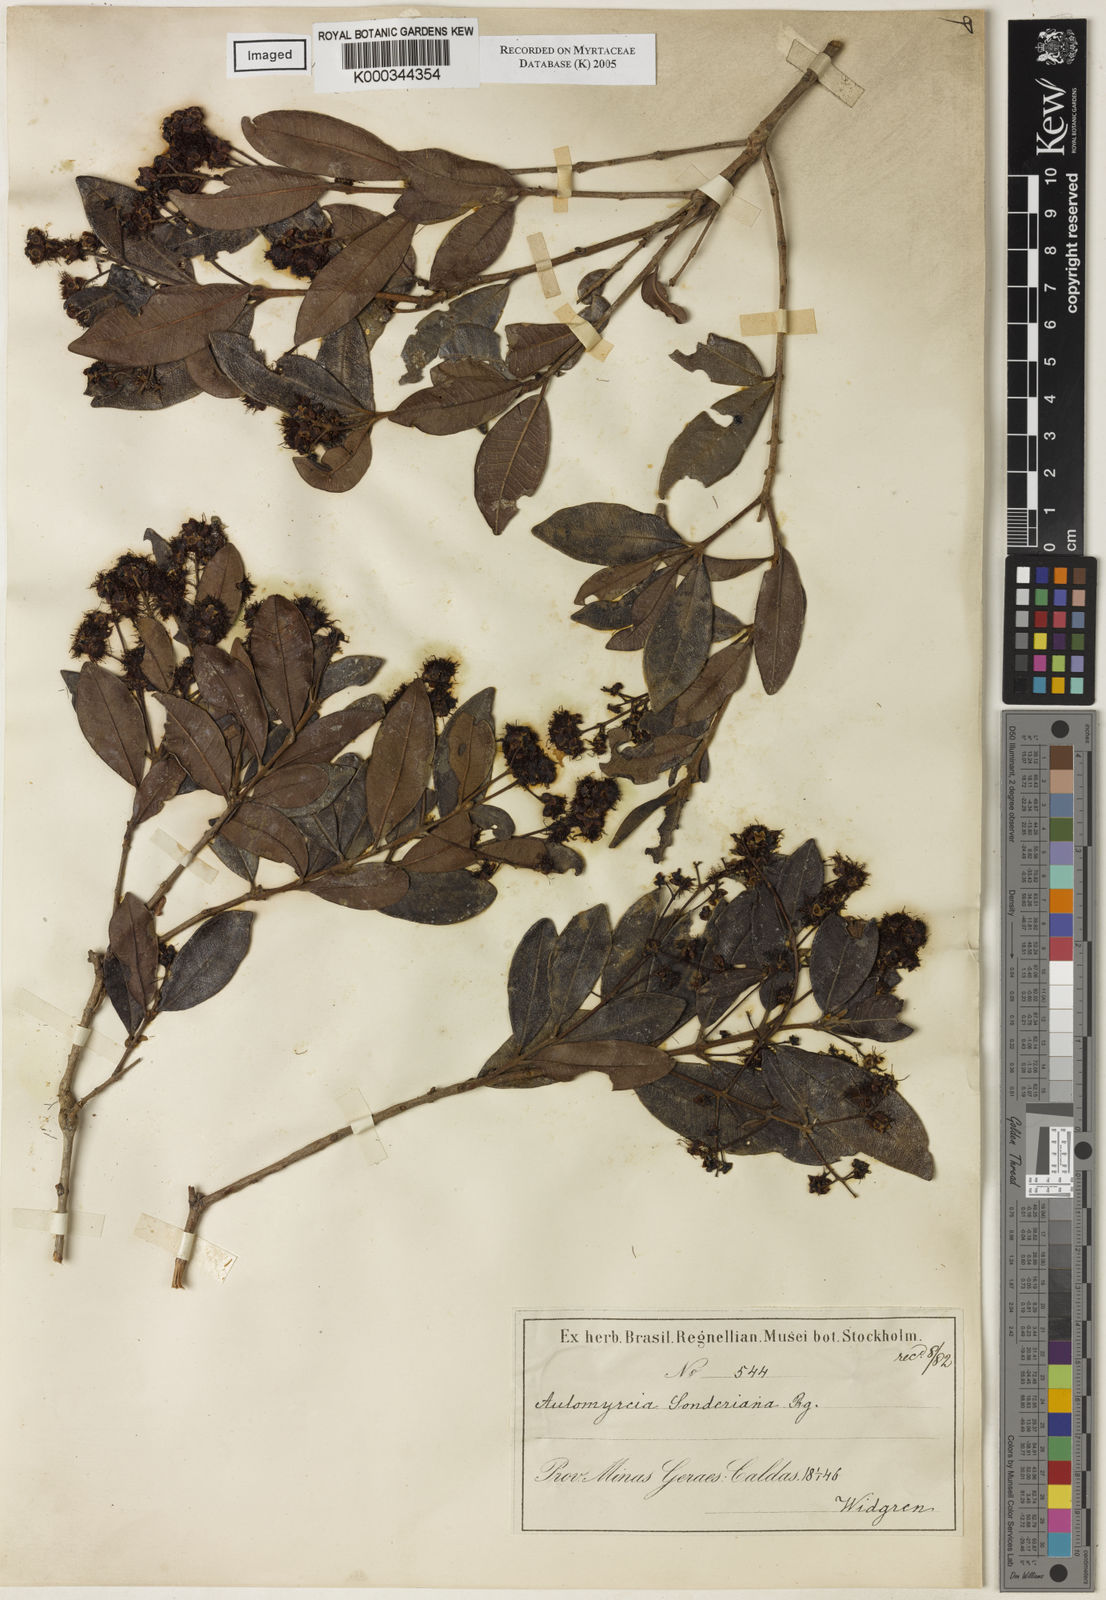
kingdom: Plantae
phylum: Tracheophyta
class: Magnoliopsida
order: Myrtales
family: Myrtaceae
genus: Myrcia
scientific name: Myrcia venulosa
